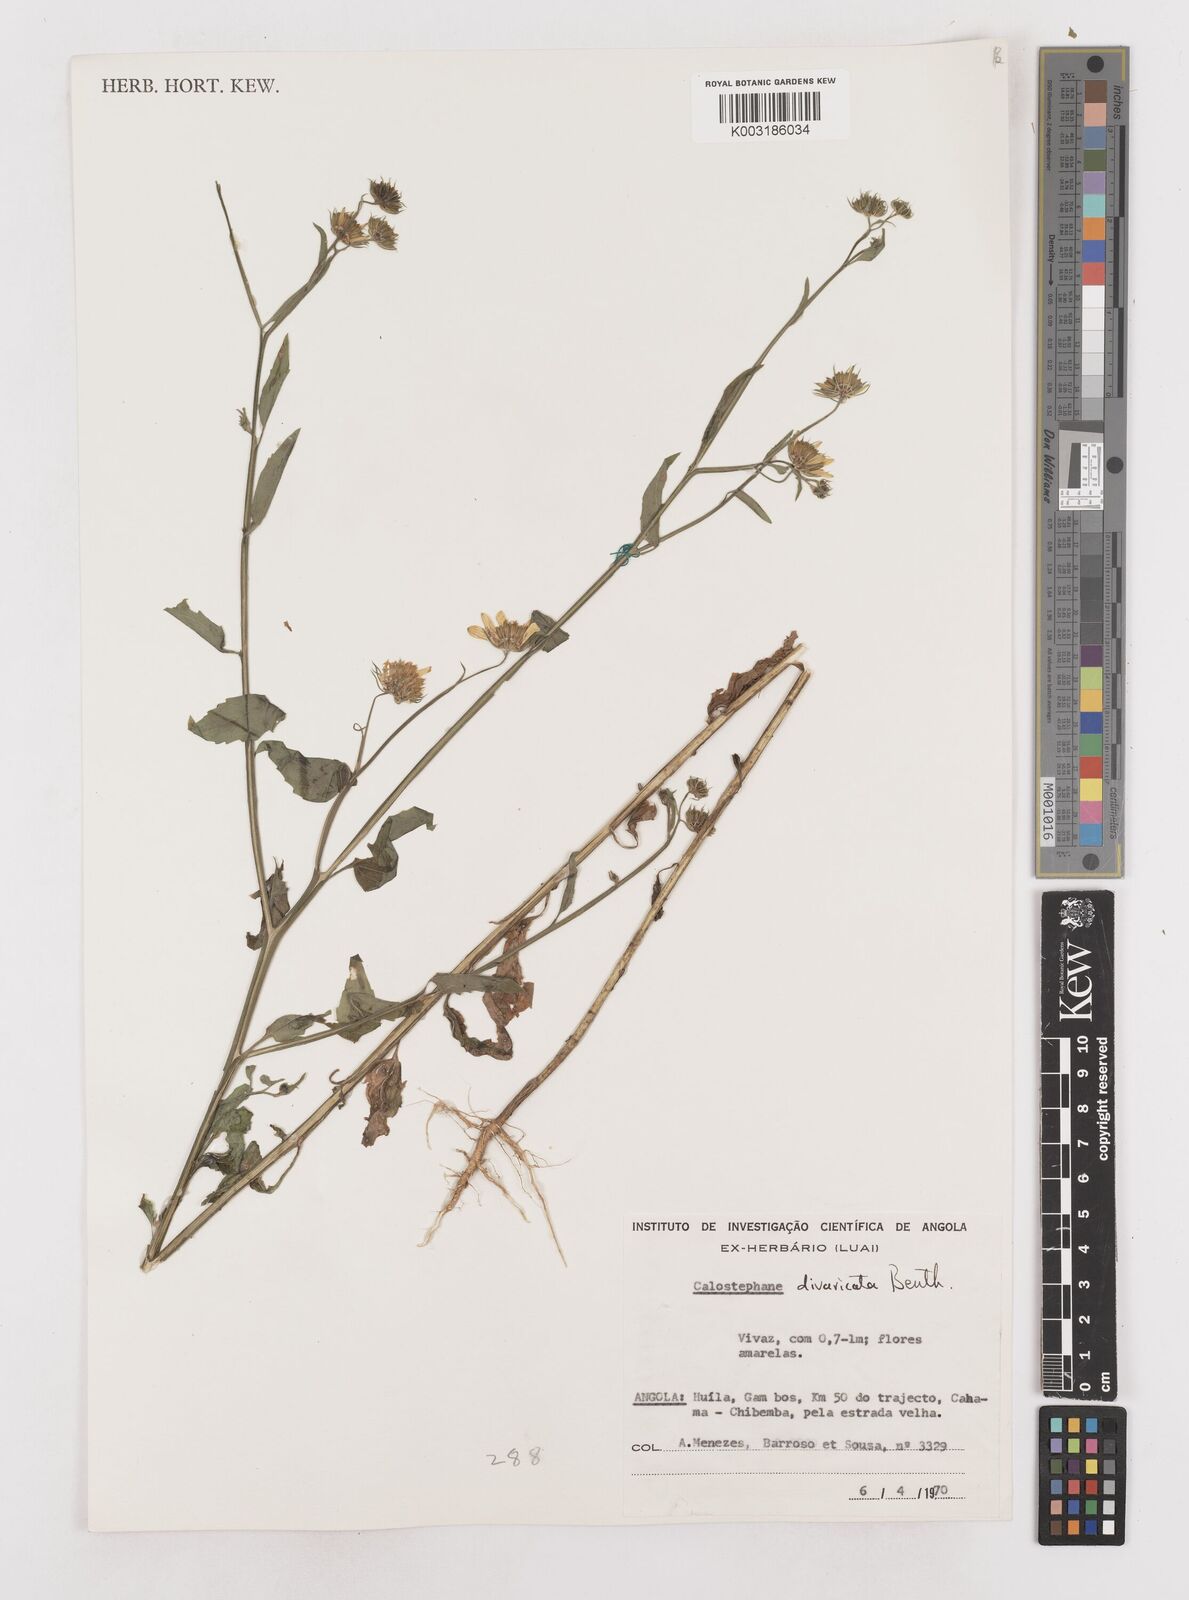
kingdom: Plantae
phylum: Tracheophyta
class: Magnoliopsida
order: Asterales
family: Asteraceae
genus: Calostephane
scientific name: Calostephane divaricata
